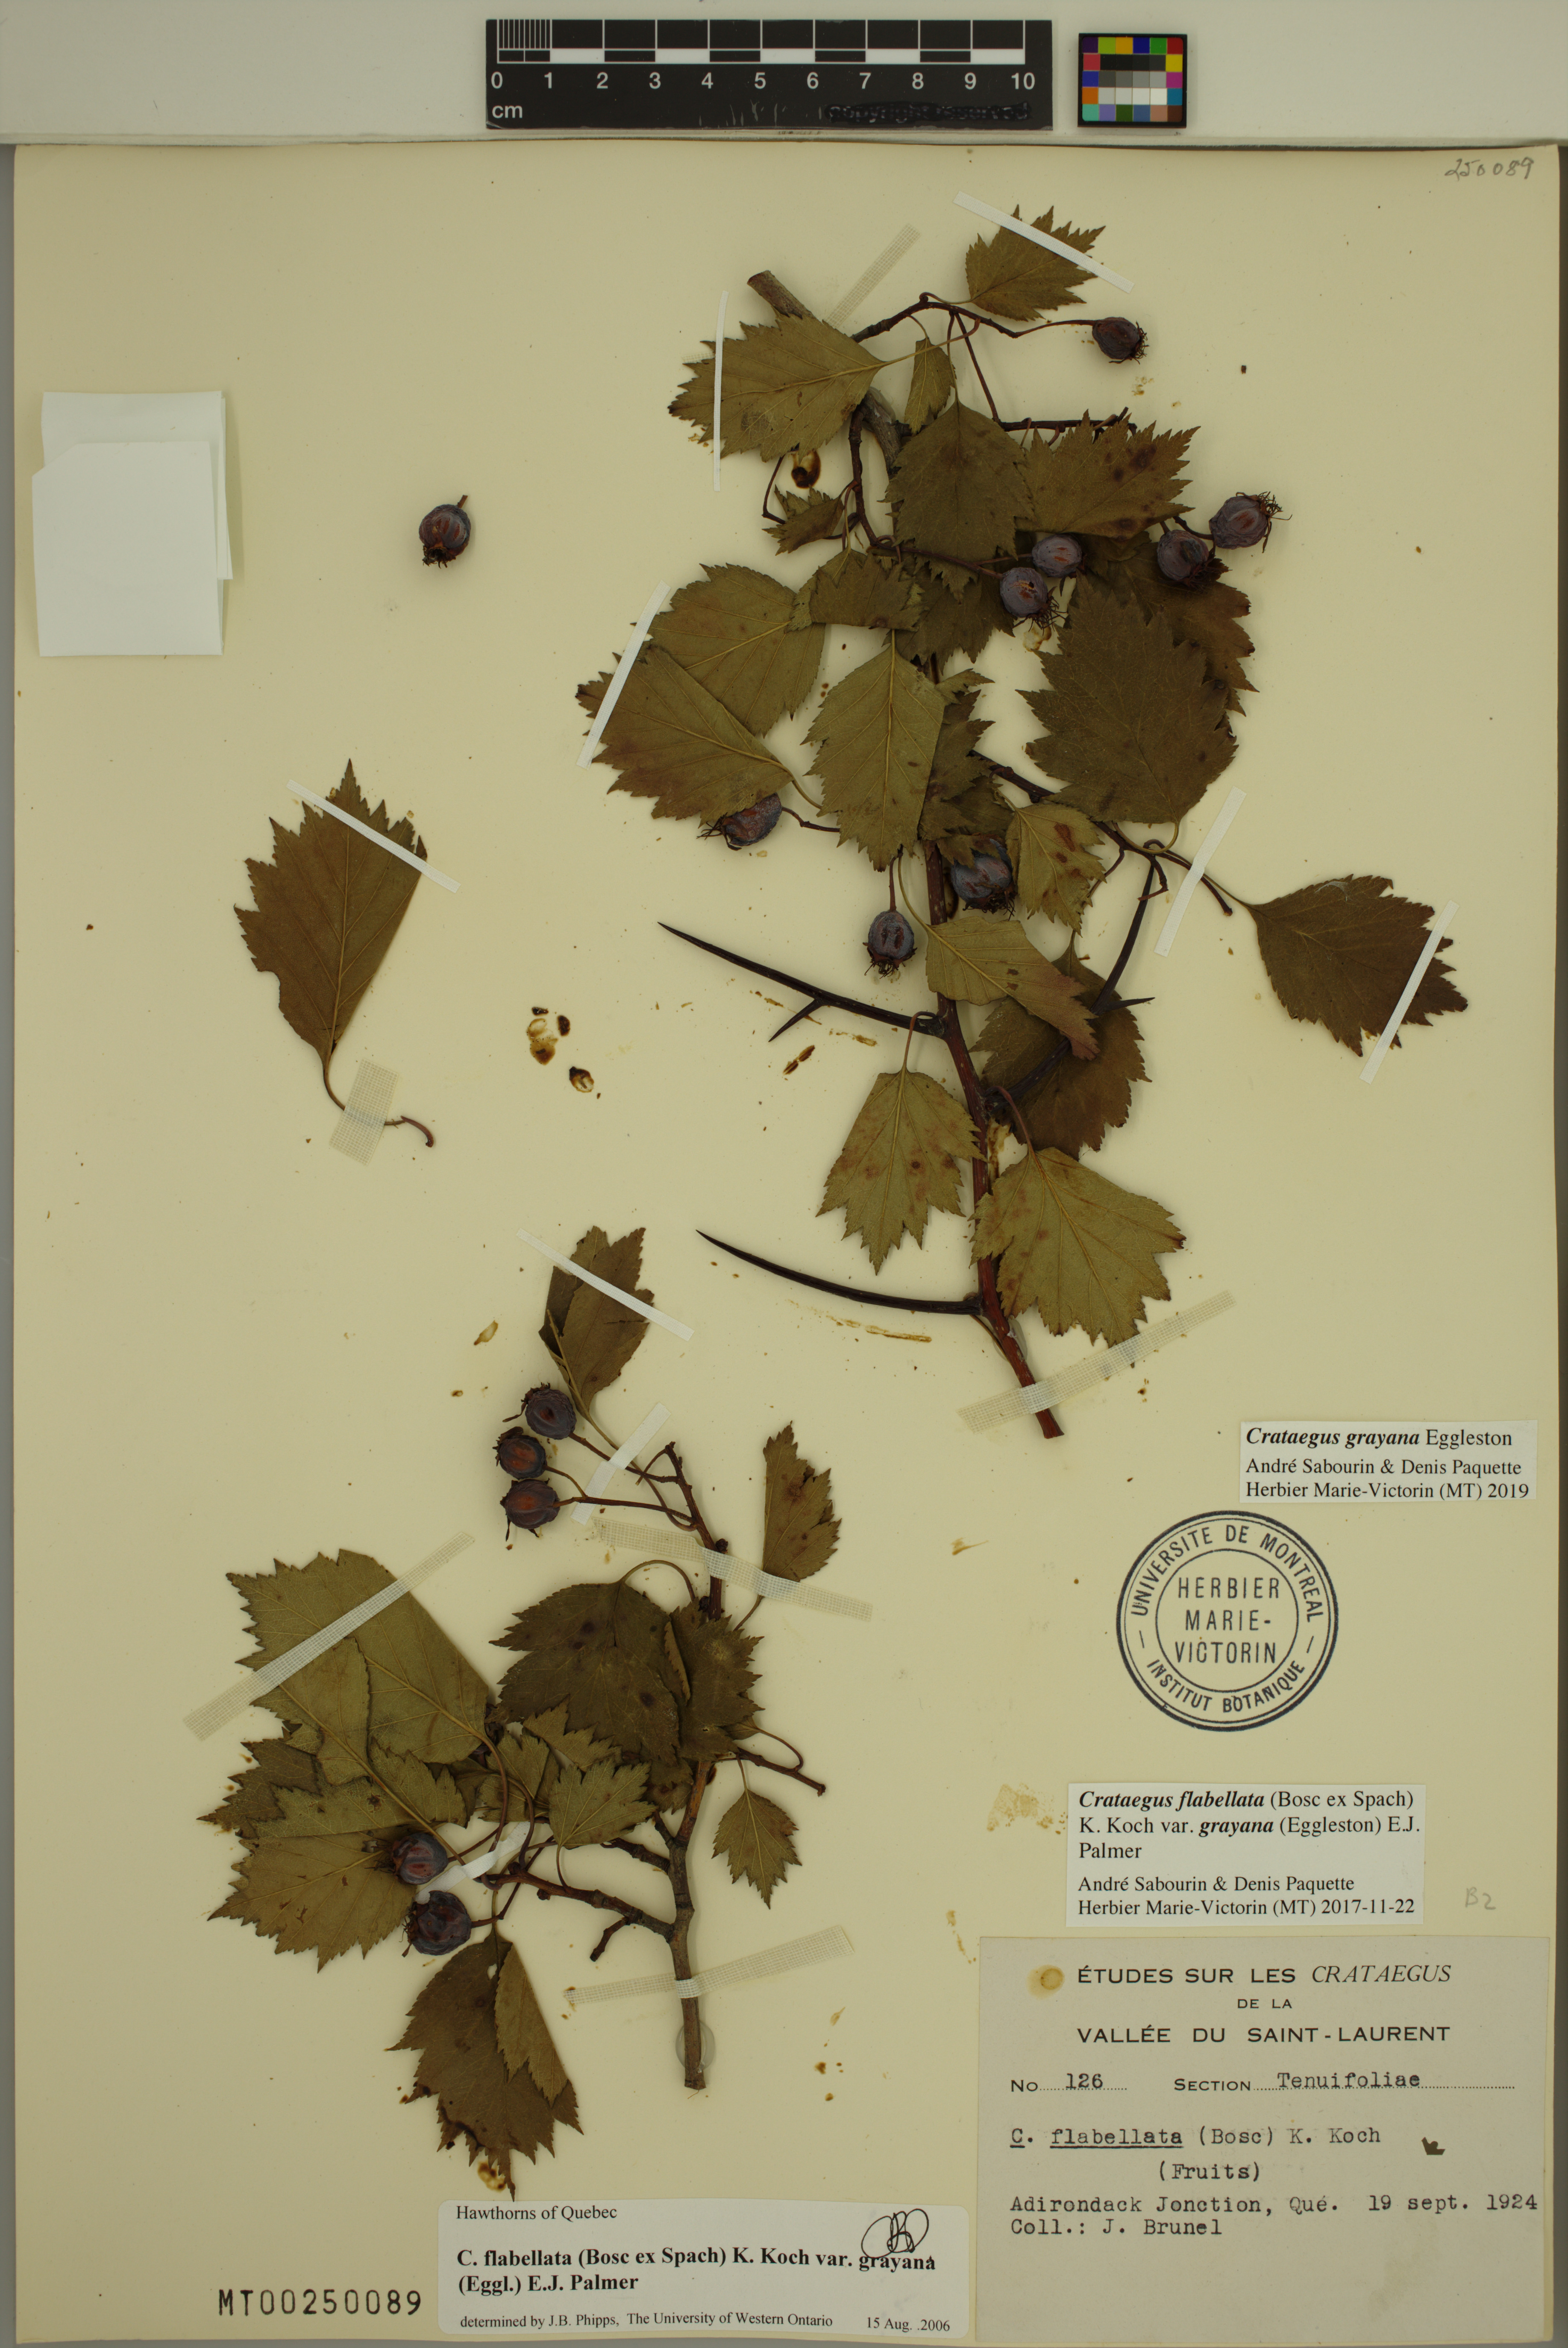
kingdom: Plantae
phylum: Tracheophyta
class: Magnoliopsida
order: Rosales
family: Rosaceae
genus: Crataegus
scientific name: Crataegus schuettei
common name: Schuette's hawthorn
